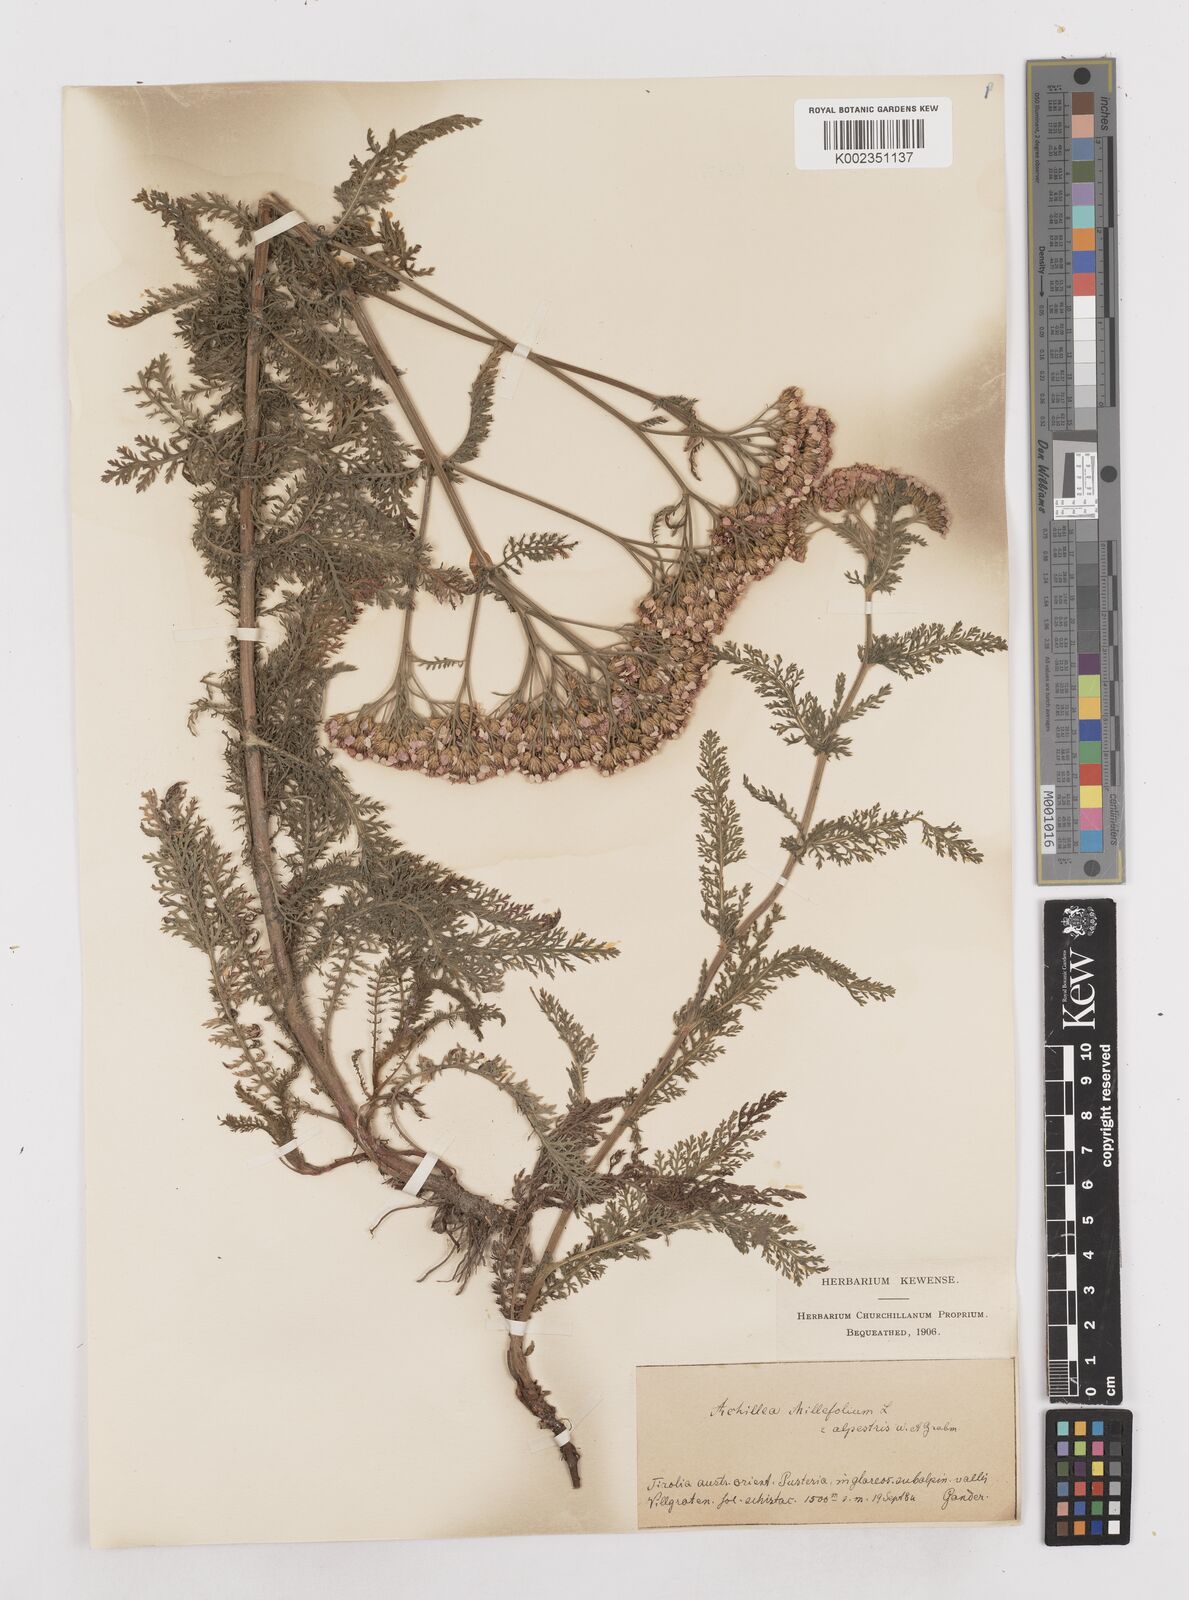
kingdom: Plantae
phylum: Tracheophyta
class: Magnoliopsida
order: Asterales
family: Asteraceae
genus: Achillea
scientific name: Achillea millefolium
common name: Yarrow
